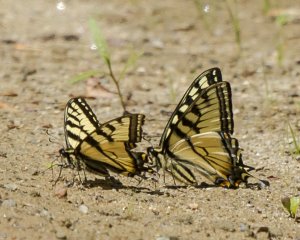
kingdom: Animalia
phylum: Arthropoda
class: Insecta
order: Lepidoptera
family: Papilionidae
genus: Pterourus
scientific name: Pterourus canadensis
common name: Canadian Tiger Swallowtail
